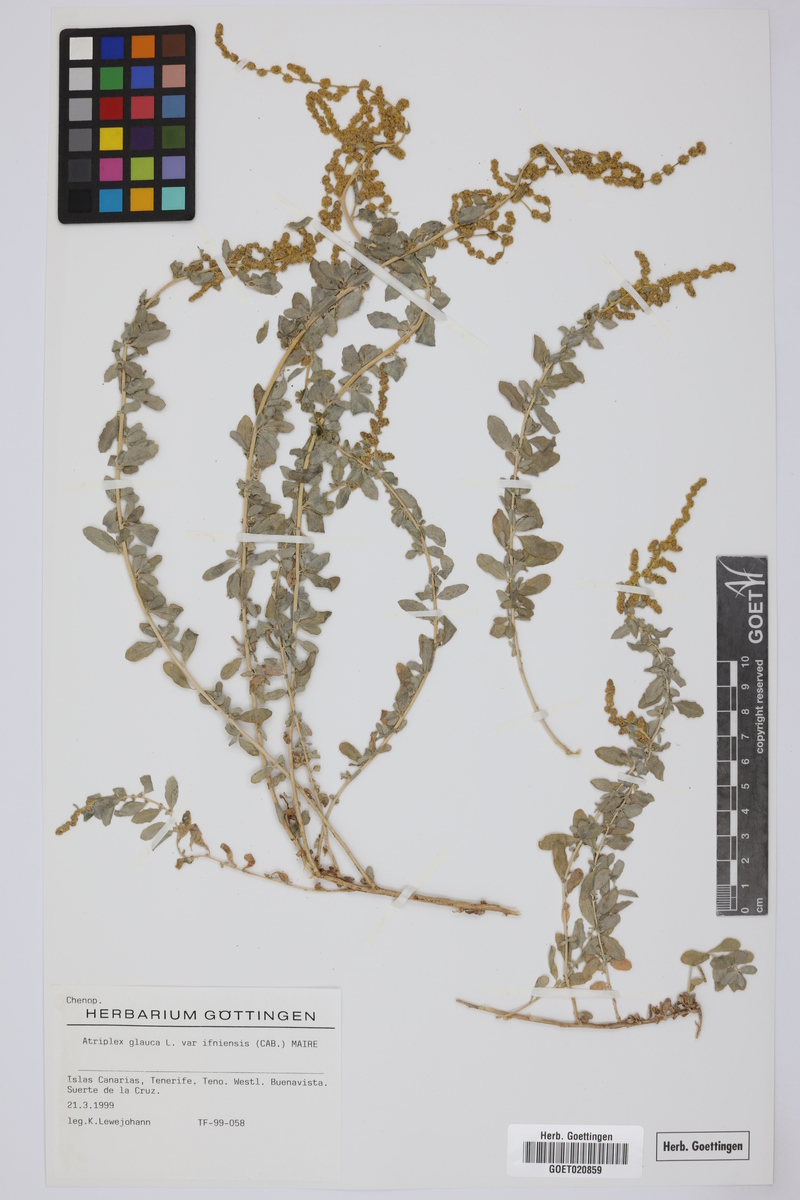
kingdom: Plantae
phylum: Tracheophyta
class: Magnoliopsida
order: Caryophyllales
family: Amaranthaceae
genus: Atriplex
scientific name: Atriplex glauca
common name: Waxy saltbush
